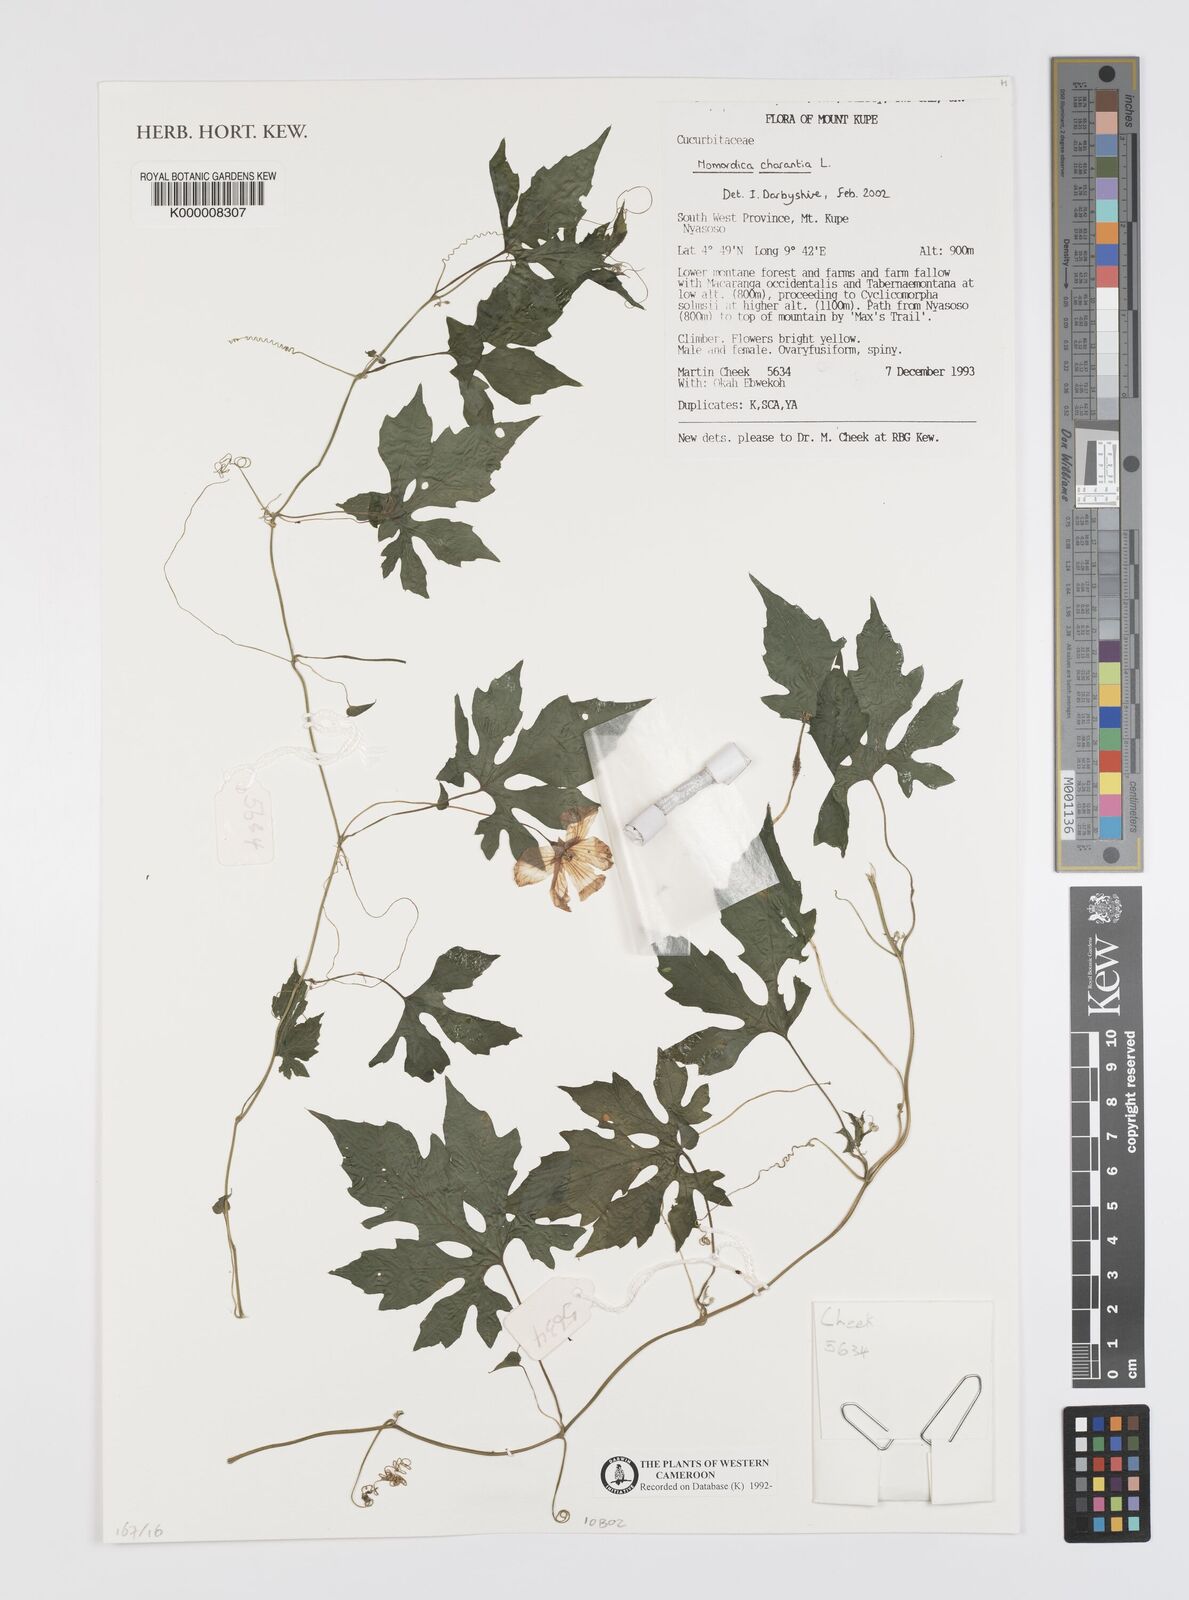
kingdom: Plantae
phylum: Tracheophyta
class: Magnoliopsida
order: Cucurbitales
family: Cucurbitaceae
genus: Momordica
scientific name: Momordica charantia
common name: Balsampear
